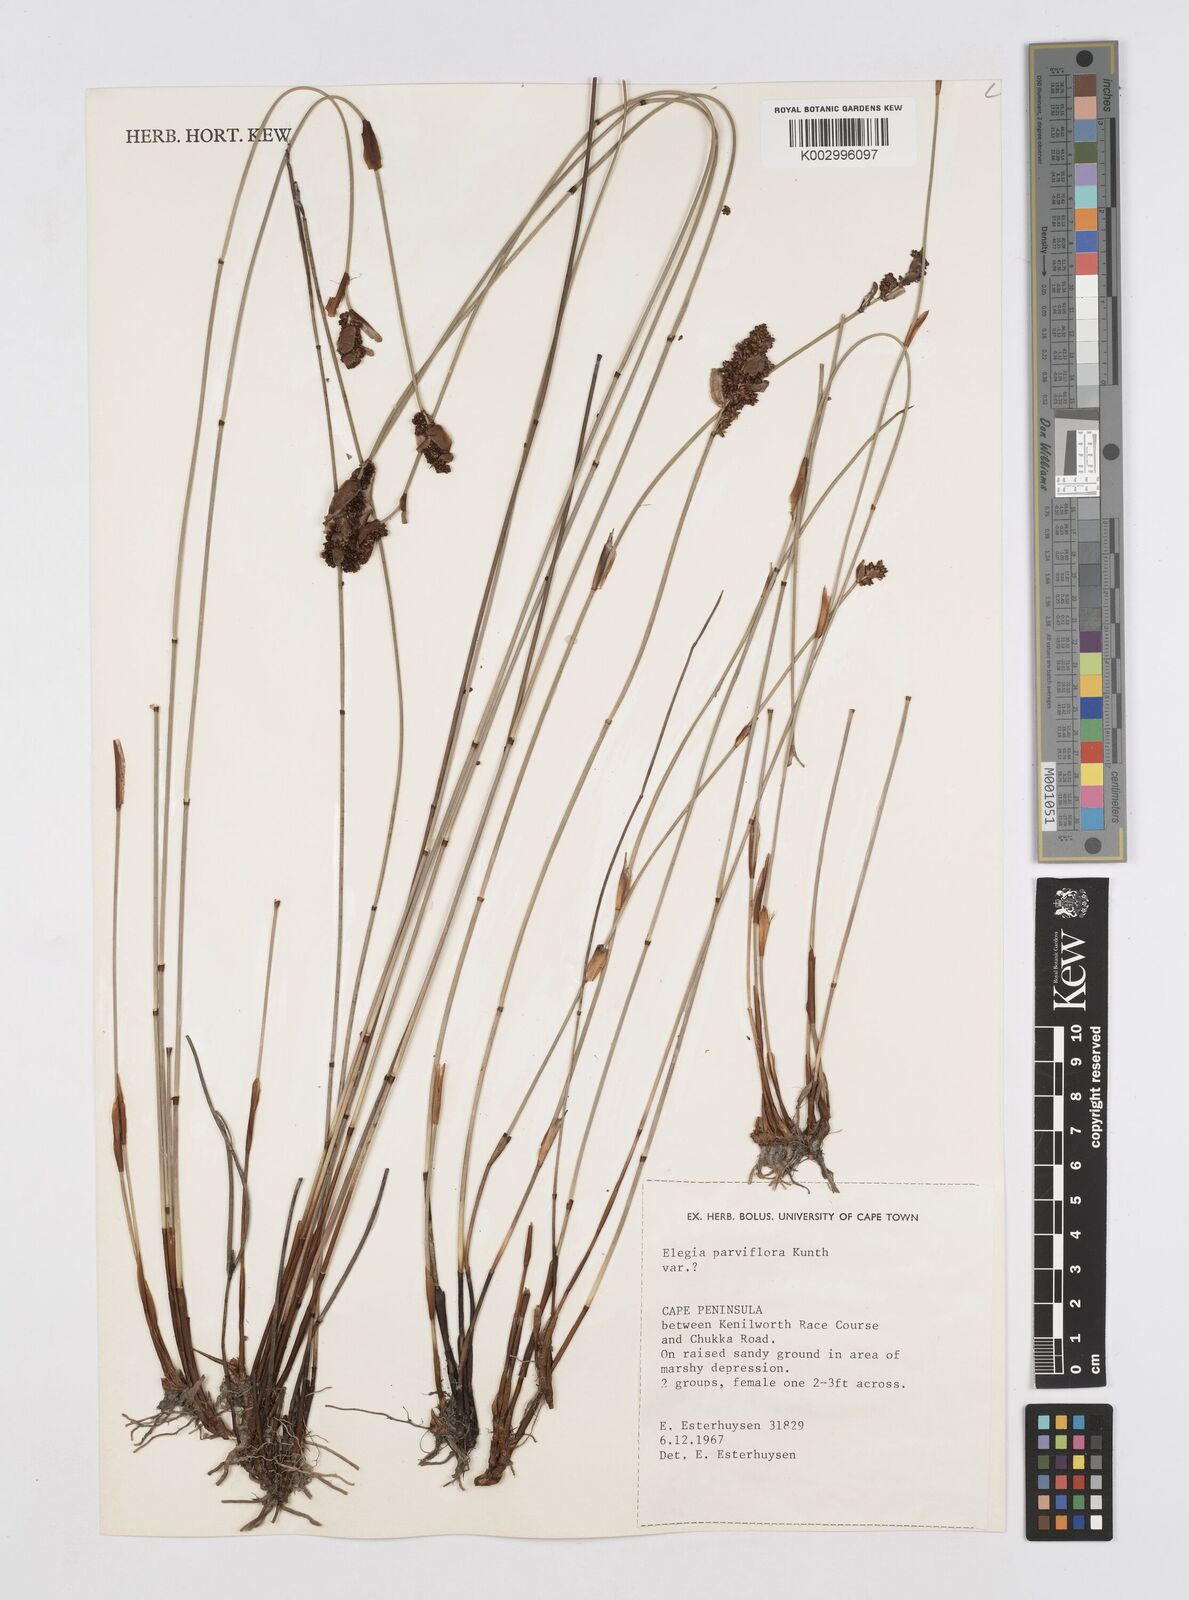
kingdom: Plantae
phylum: Tracheophyta
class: Liliopsida
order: Poales
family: Restionaceae
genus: Cannomois
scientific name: Cannomois parviflora
